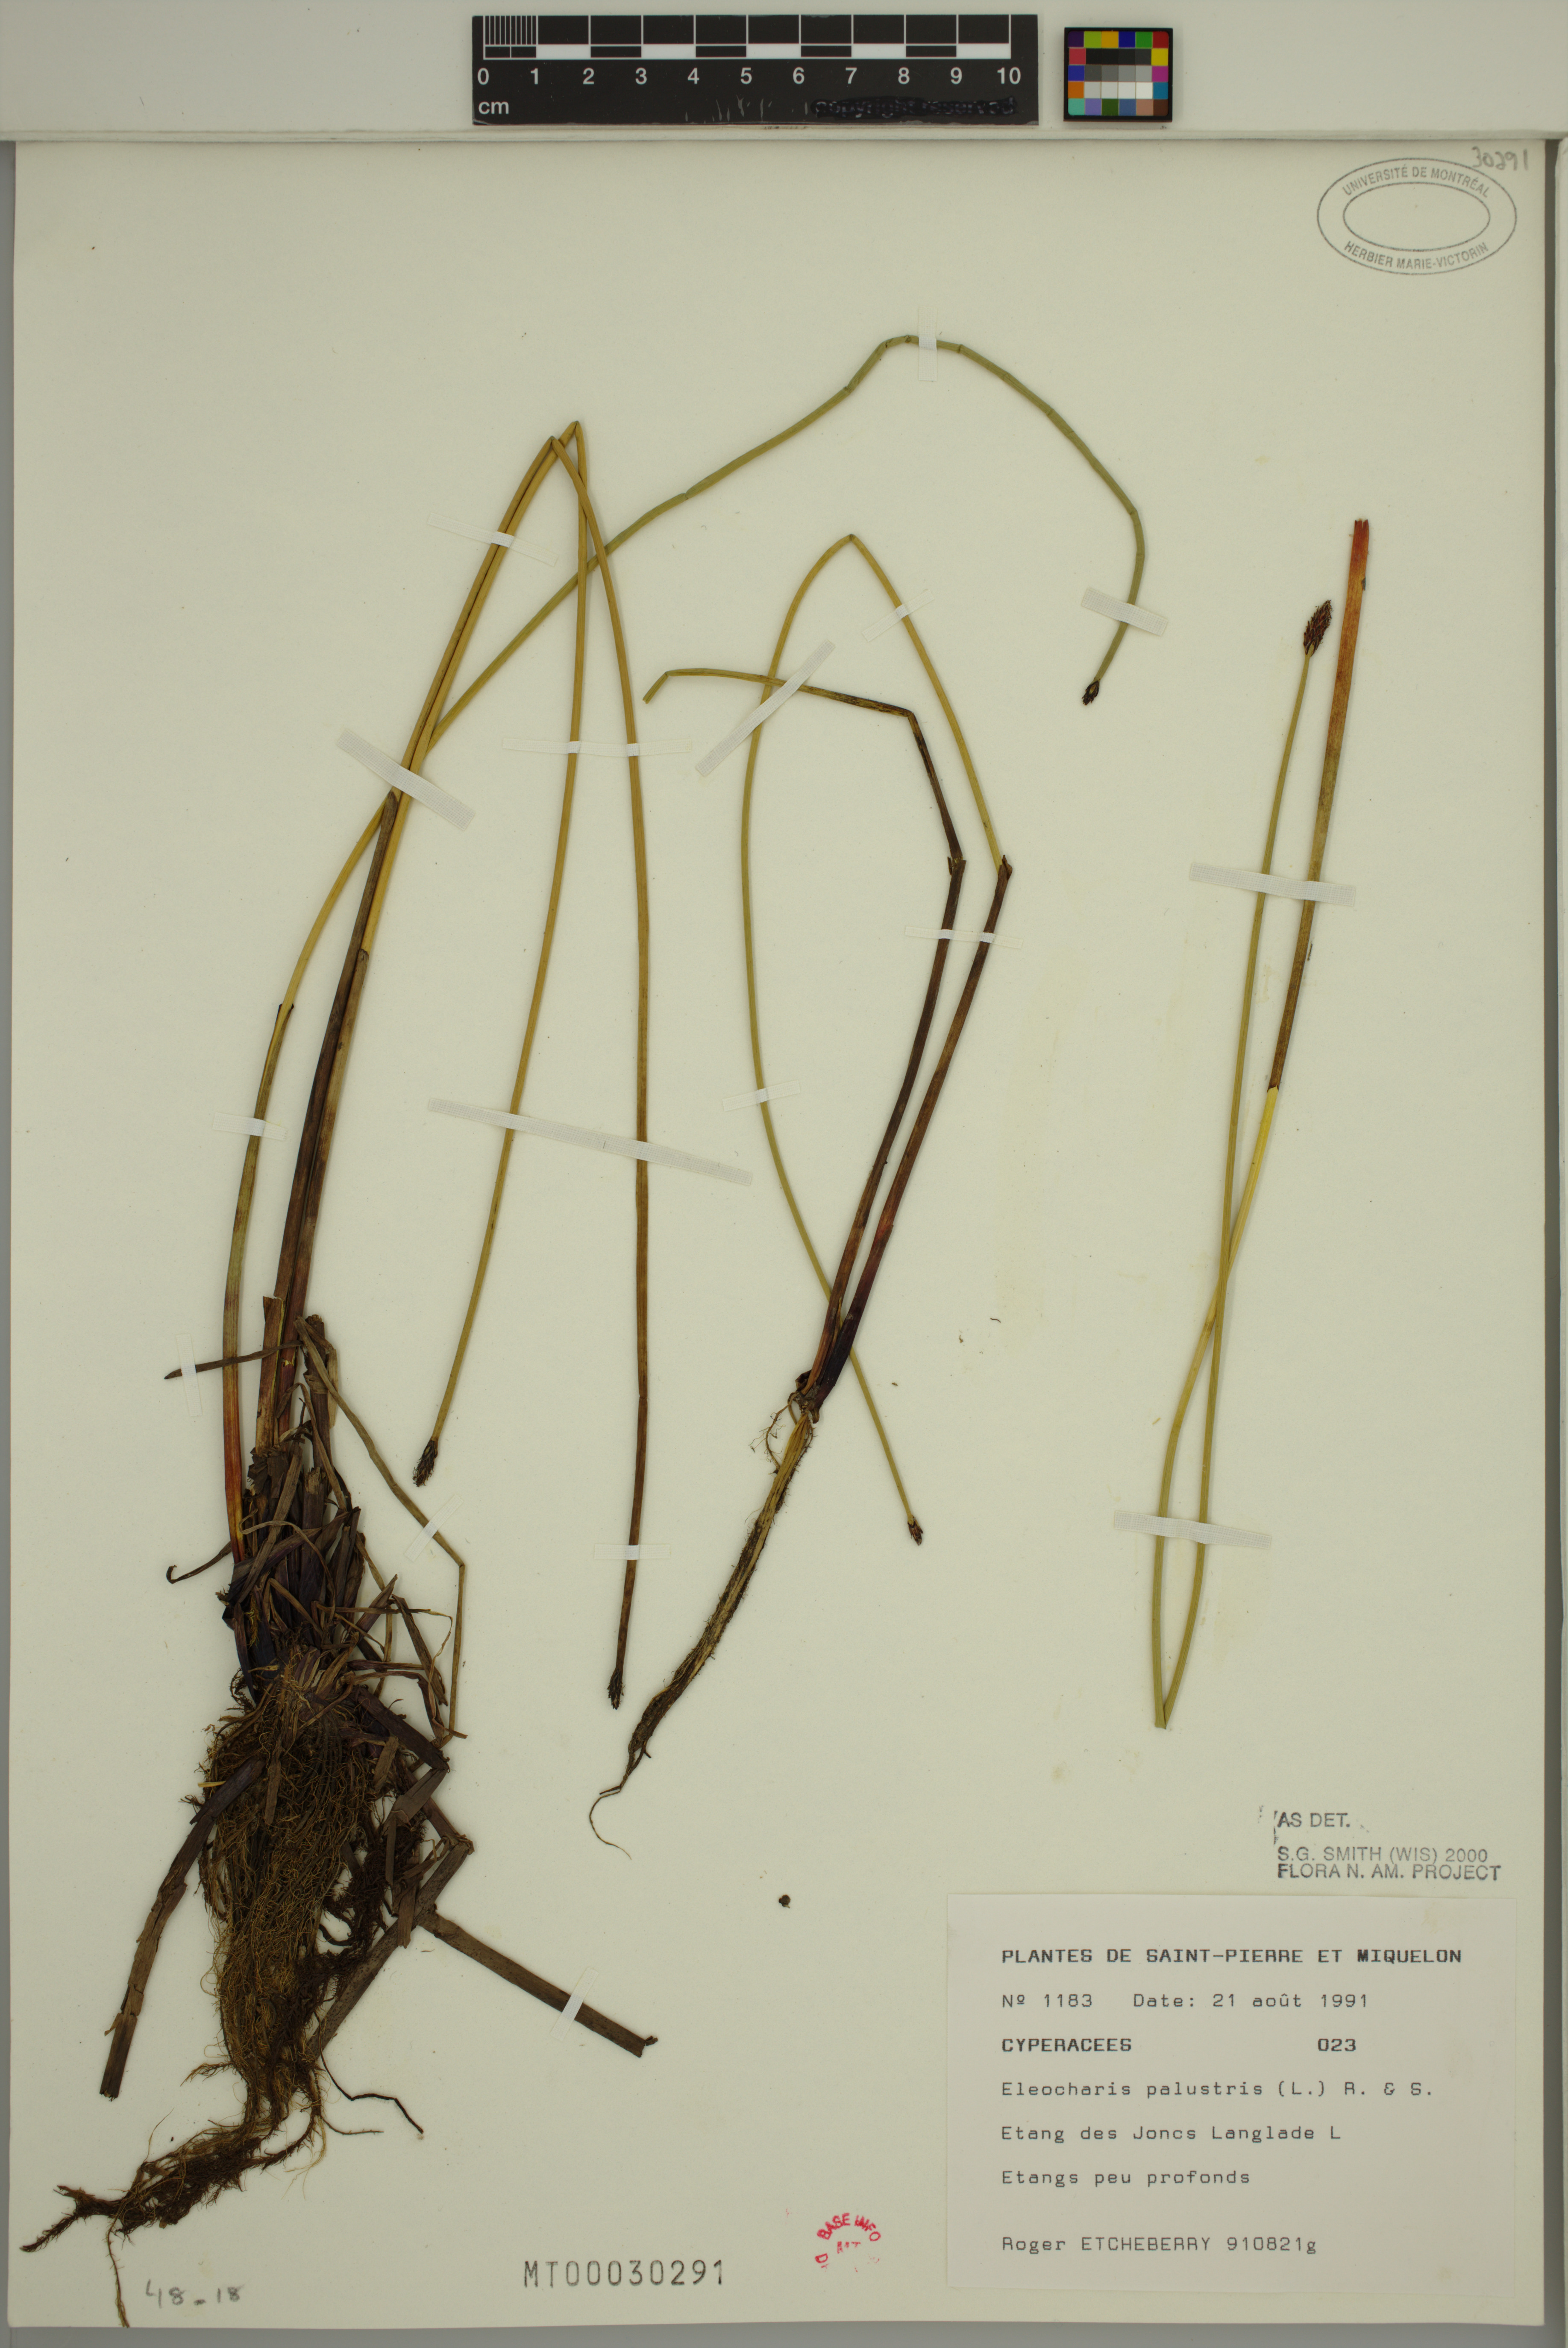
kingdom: Plantae
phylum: Tracheophyta
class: Liliopsida
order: Poales
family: Cyperaceae
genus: Eleocharis
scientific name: Eleocharis palustris
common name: Common spike-rush
